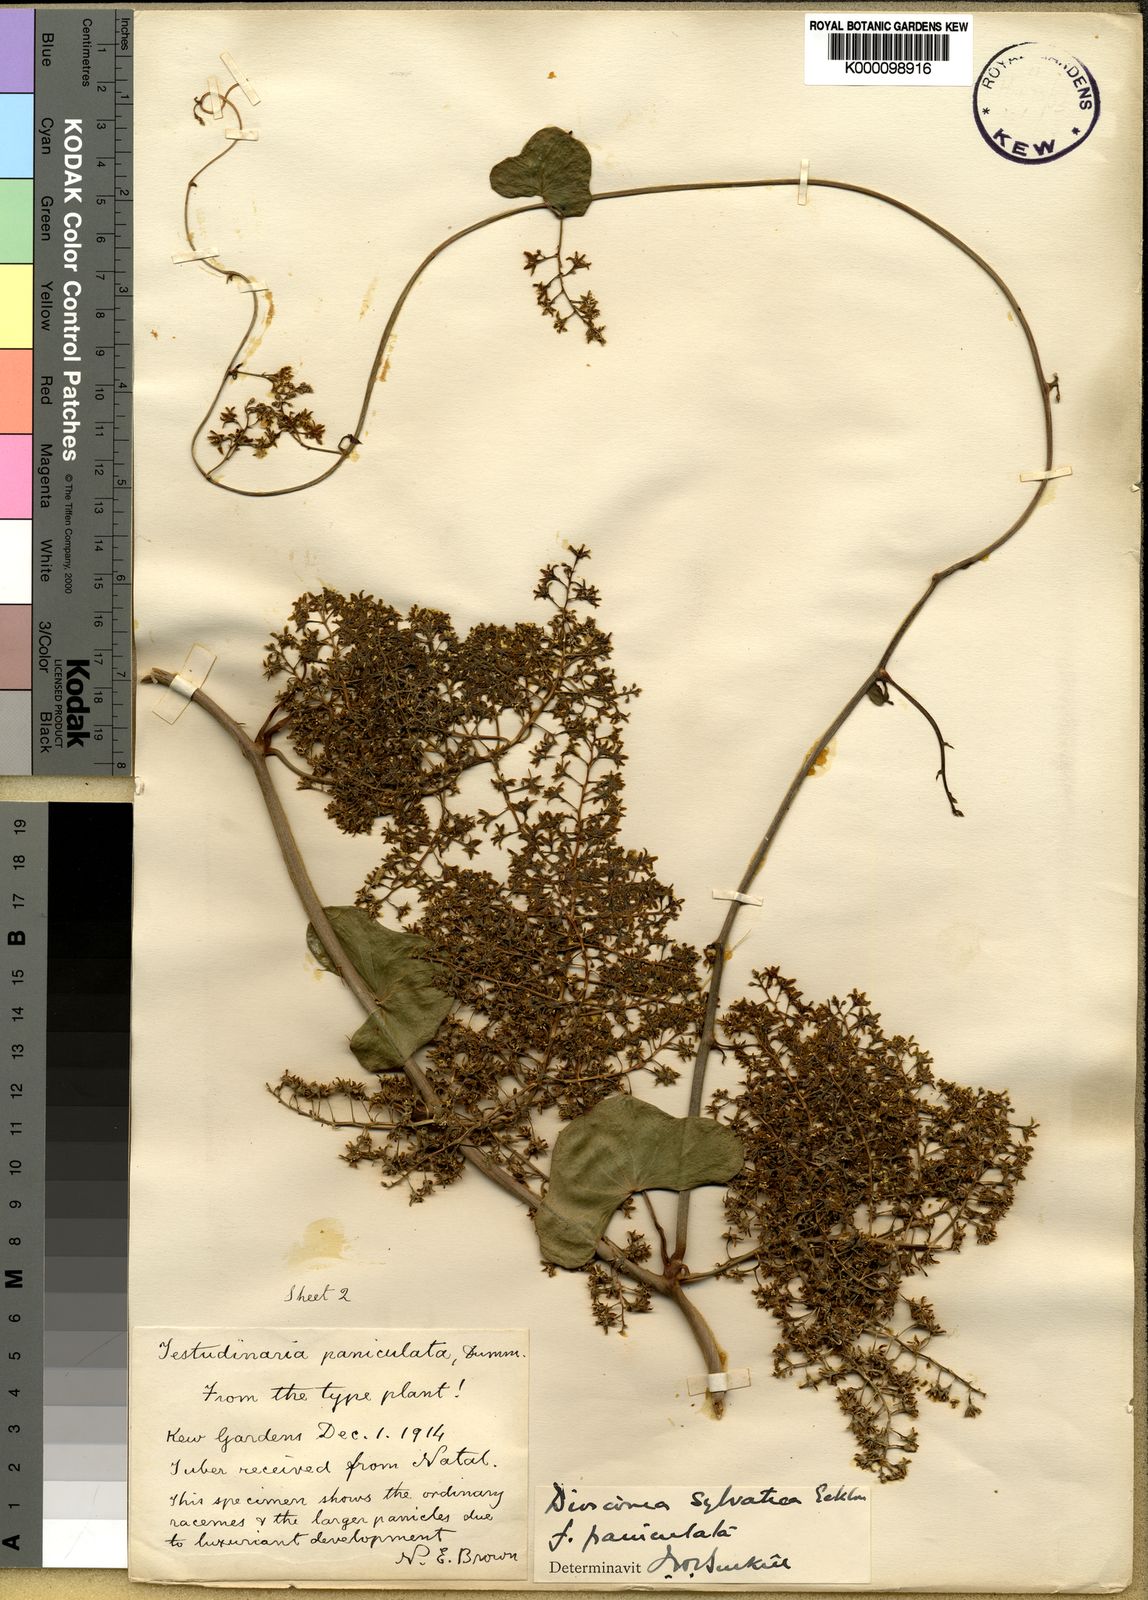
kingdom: Plantae
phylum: Tracheophyta
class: Liliopsida
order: Dioscoreales
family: Dioscoreaceae
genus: Dioscorea
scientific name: Dioscorea sylvatica
